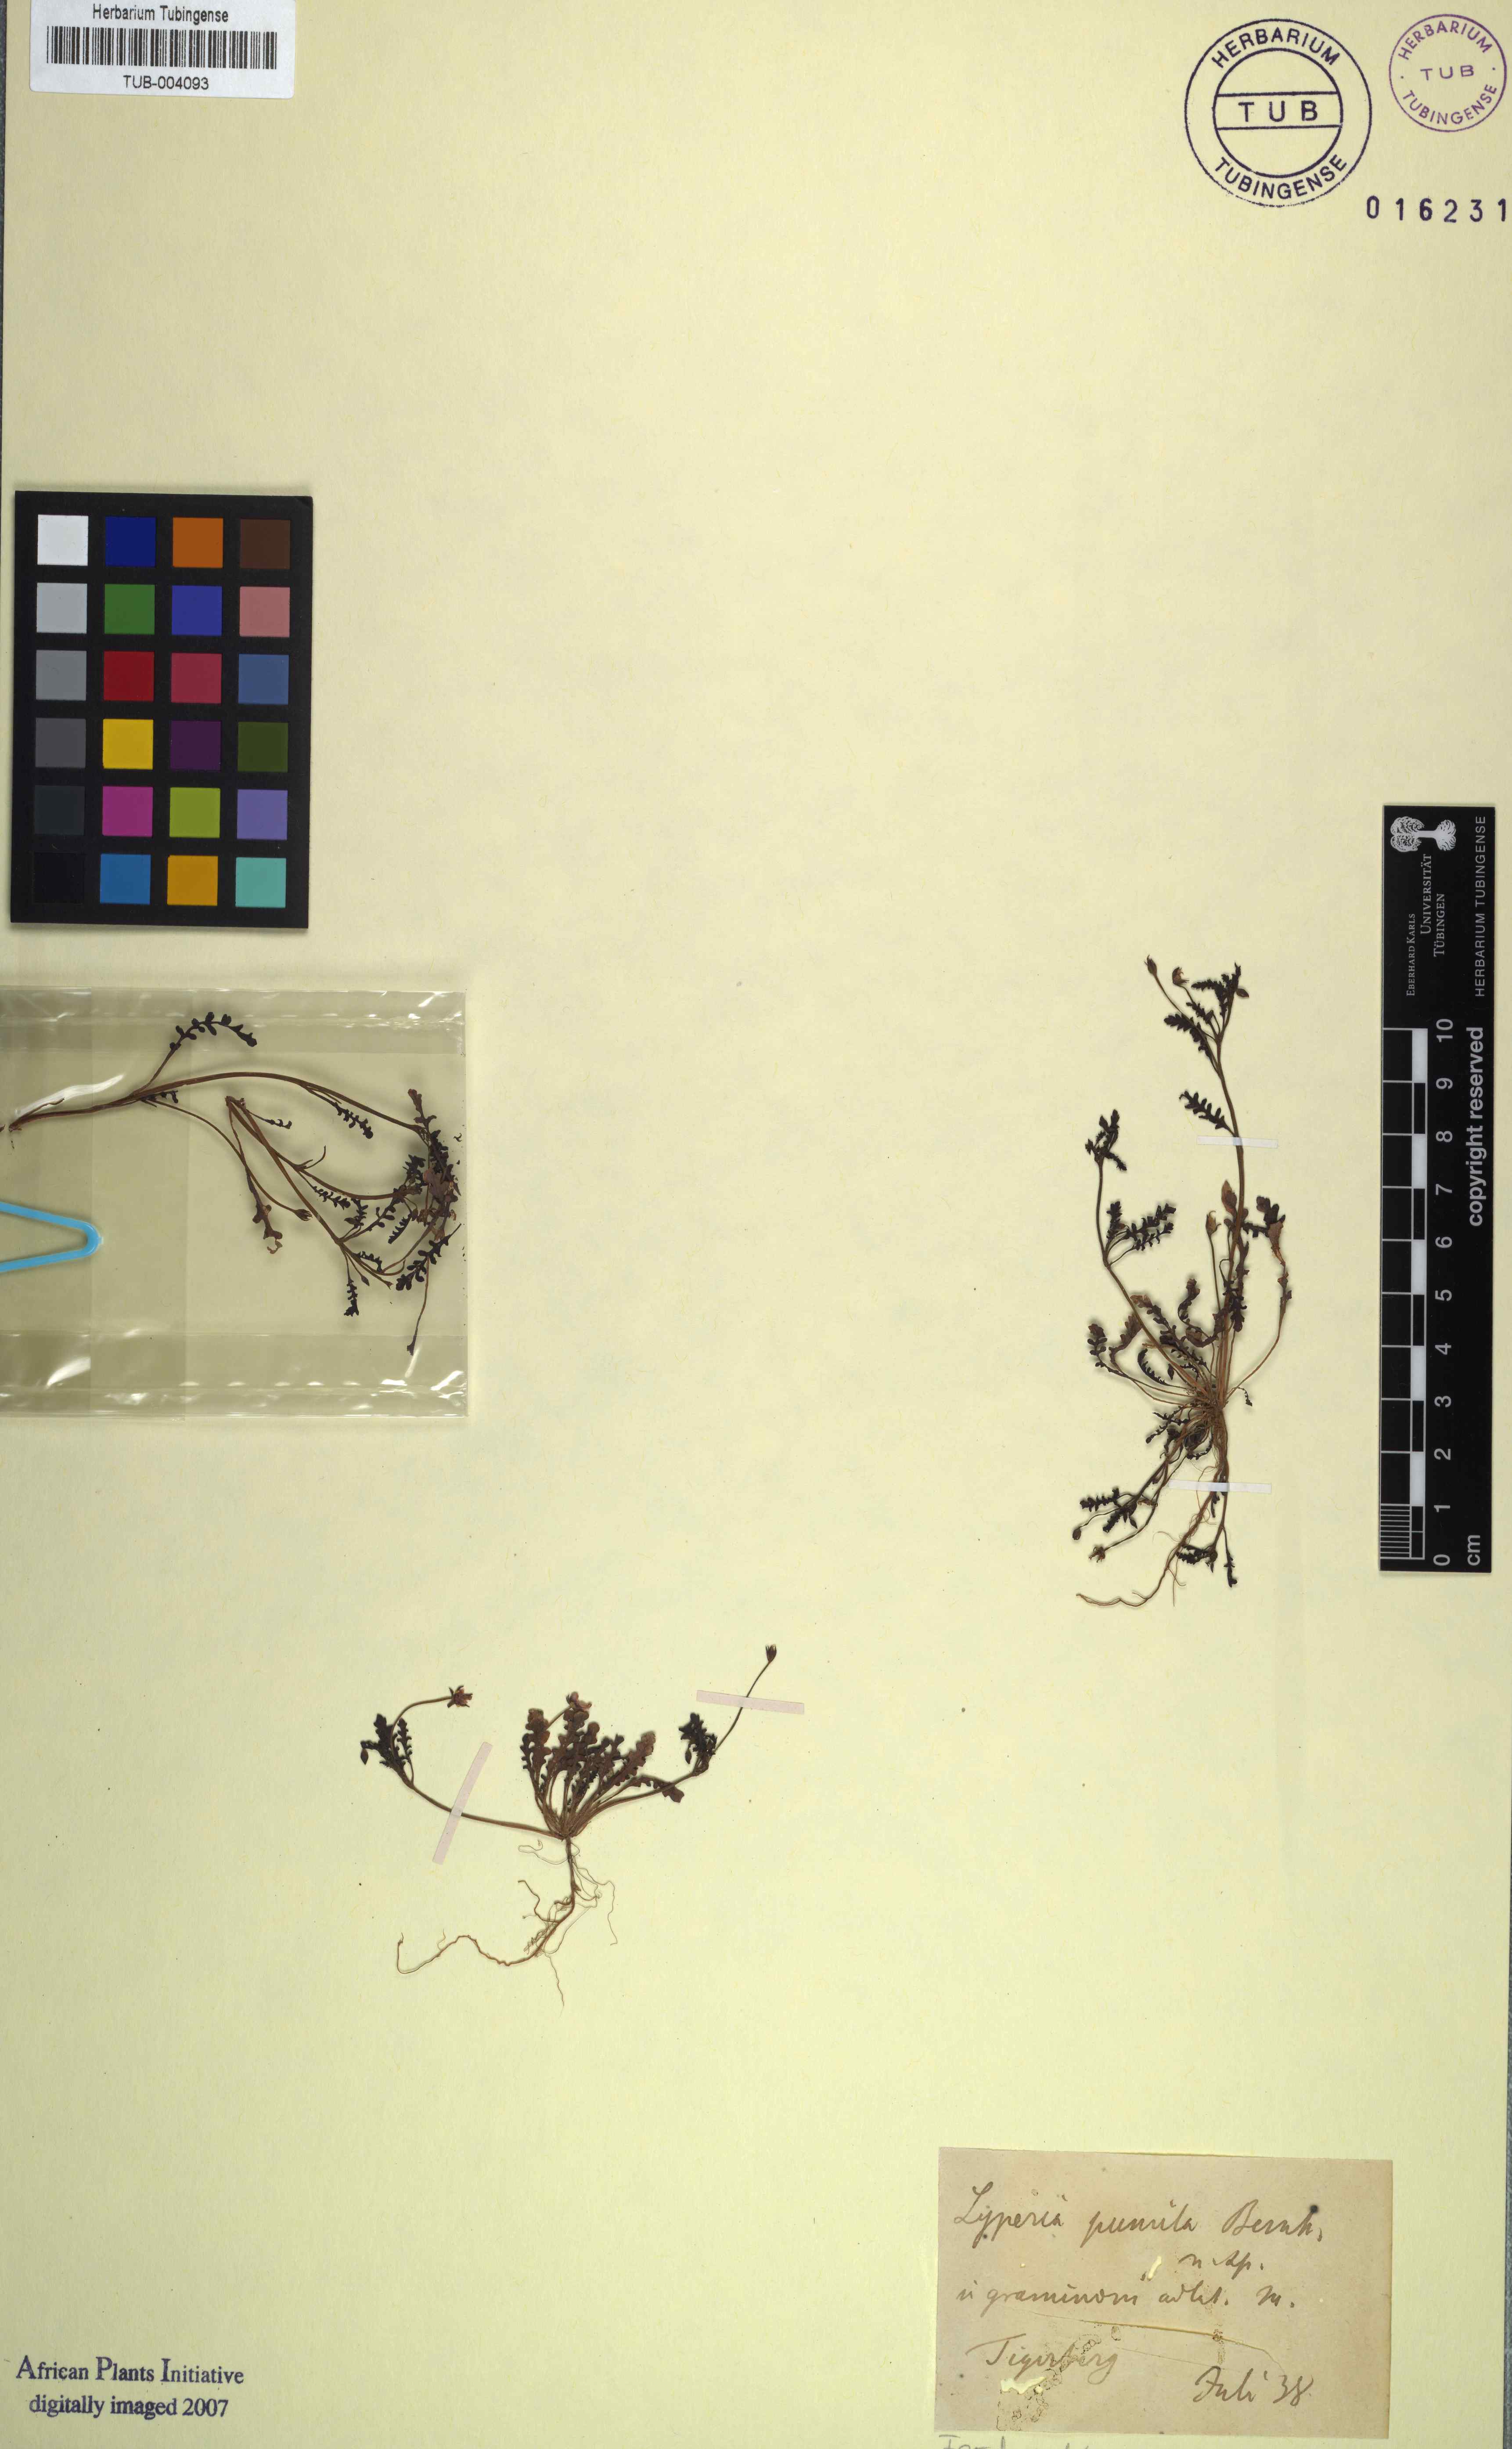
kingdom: Plantae
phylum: Tracheophyta
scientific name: Tracheophyta
